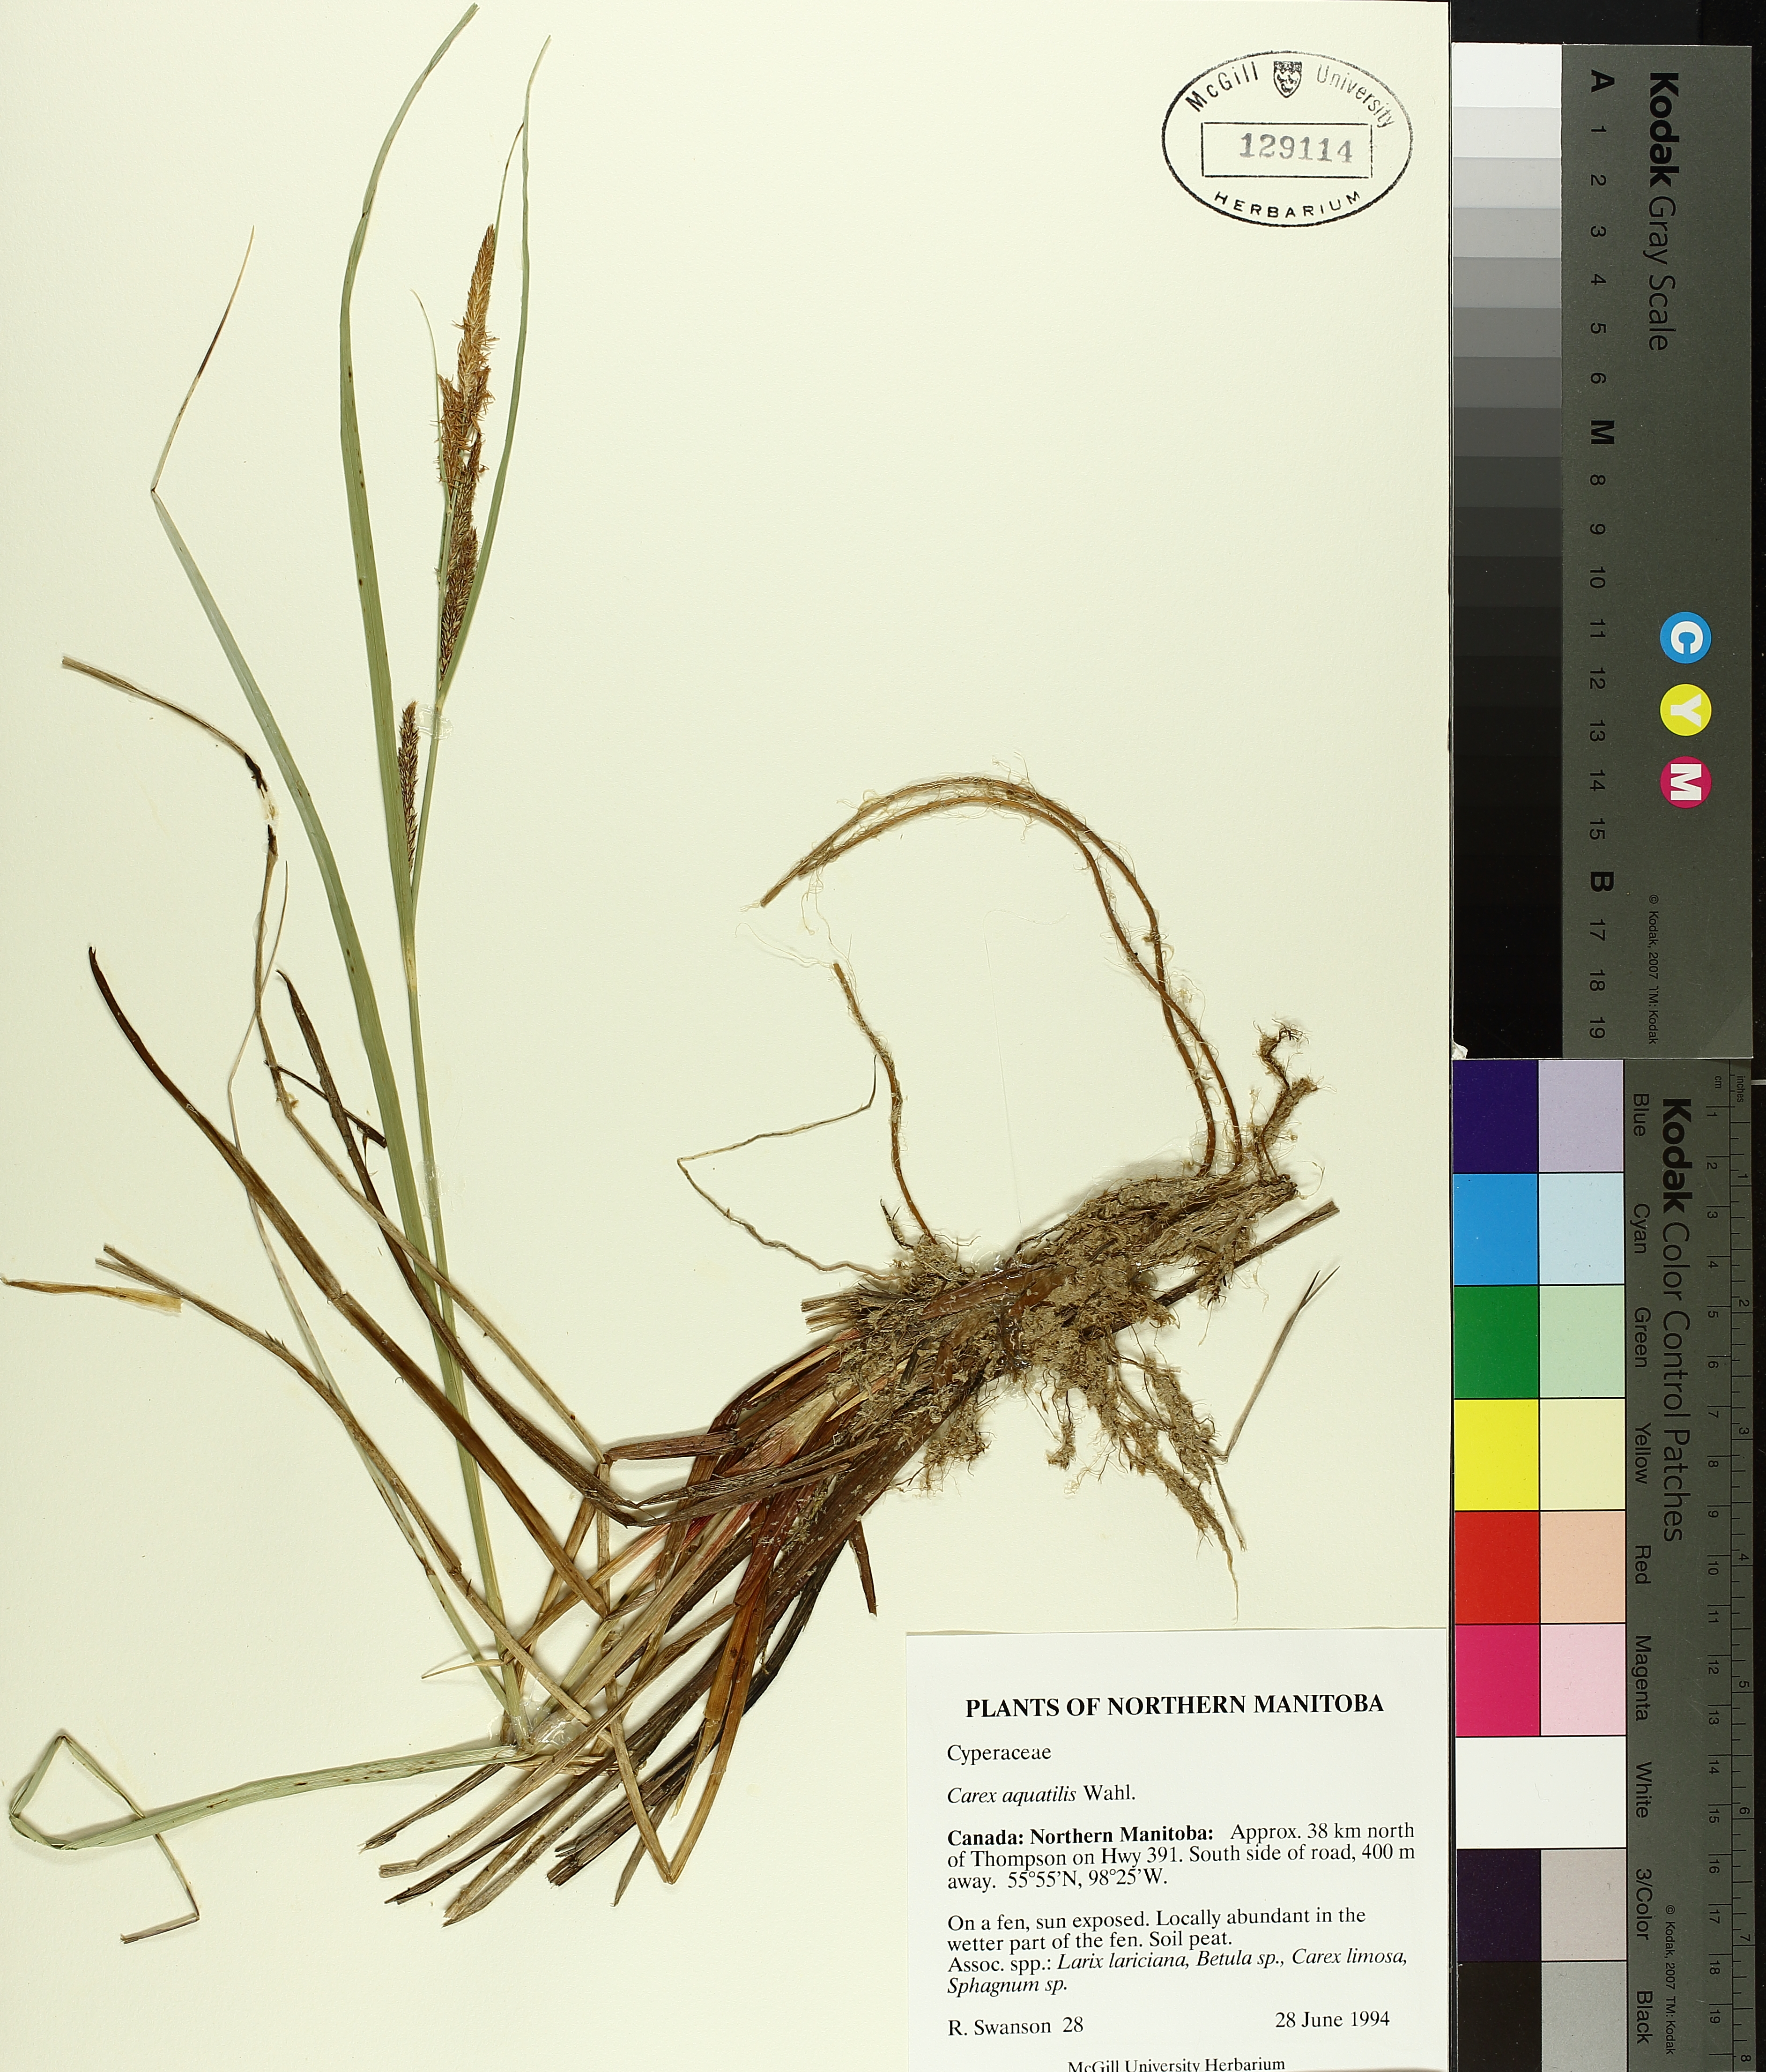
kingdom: Plantae
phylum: Tracheophyta
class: Liliopsida
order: Poales
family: Cyperaceae
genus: Carex
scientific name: Carex aquatilis
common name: Water sedge
